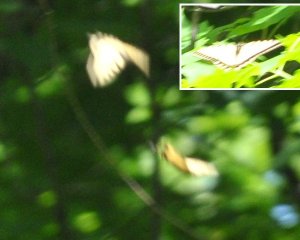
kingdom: Animalia
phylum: Arthropoda
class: Insecta
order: Lepidoptera
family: Papilionidae
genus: Pterourus
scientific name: Pterourus canadensis
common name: Canadian Tiger Swallowtail
